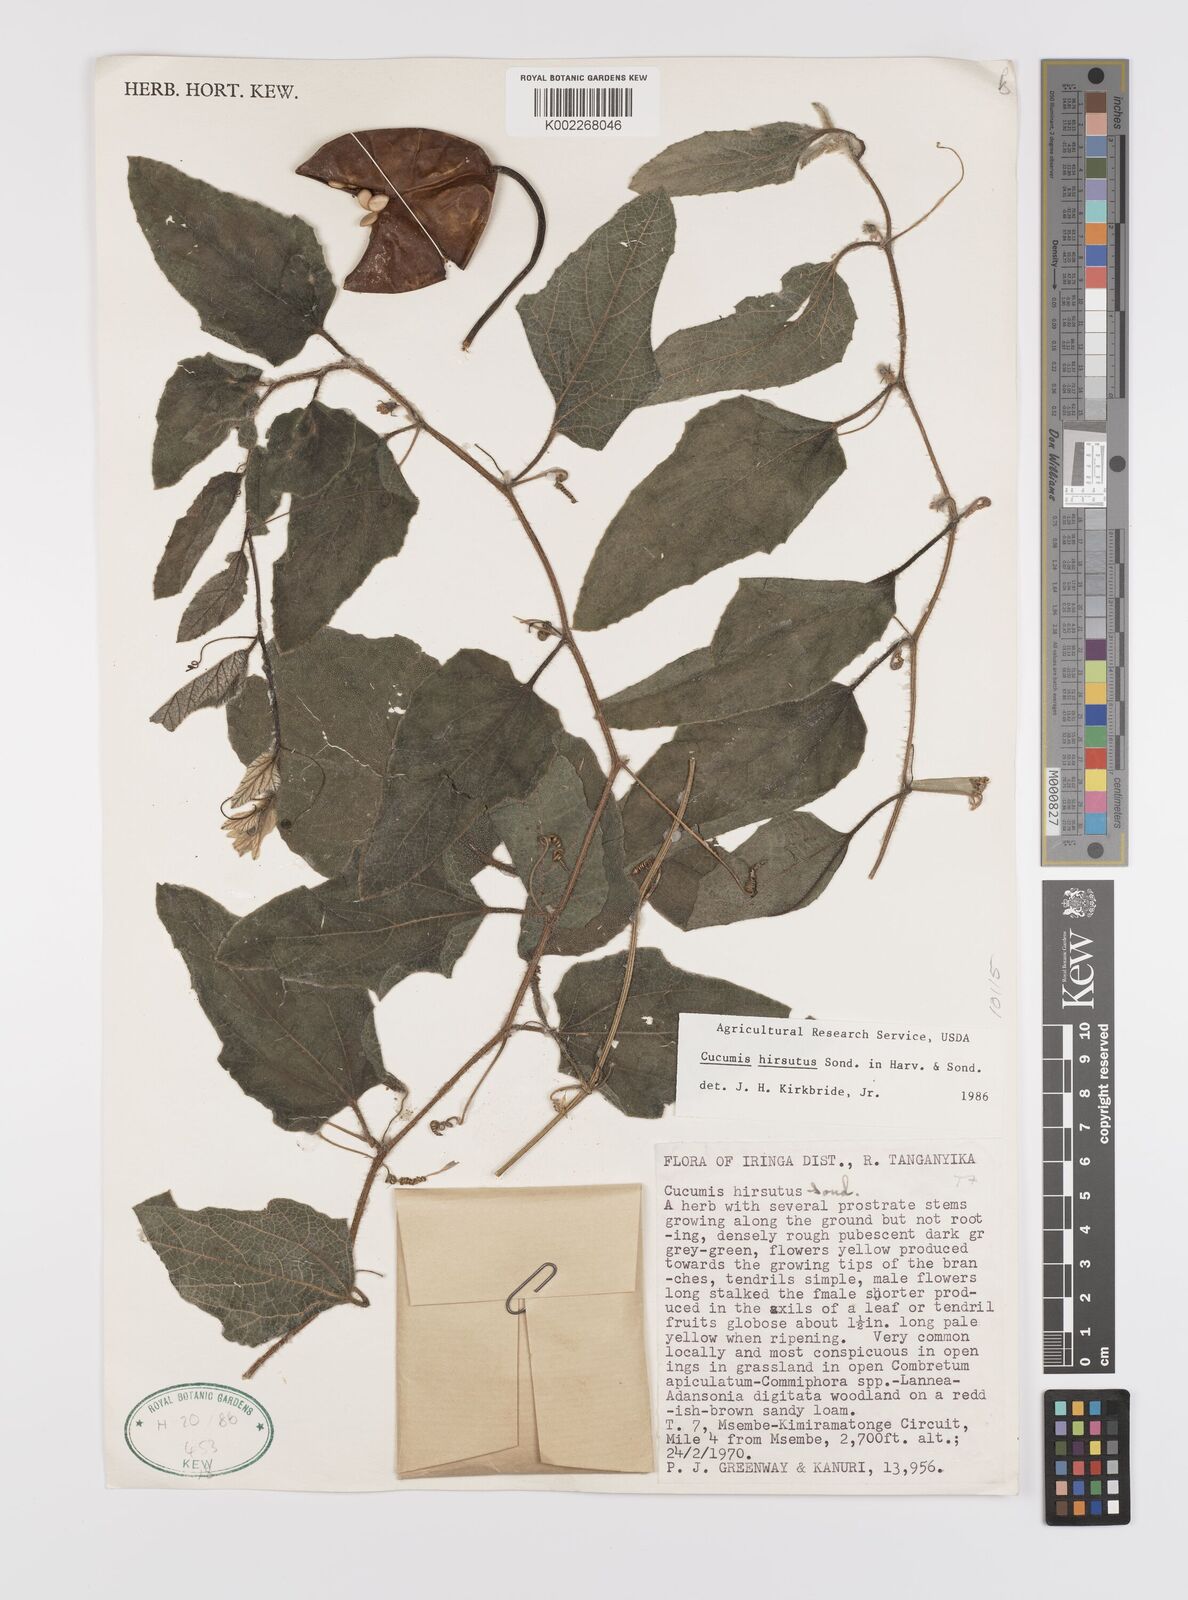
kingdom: Plantae
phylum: Tracheophyta
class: Magnoliopsida
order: Cucurbitales
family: Cucurbitaceae
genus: Cucumis
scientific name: Cucumis hirsutus
